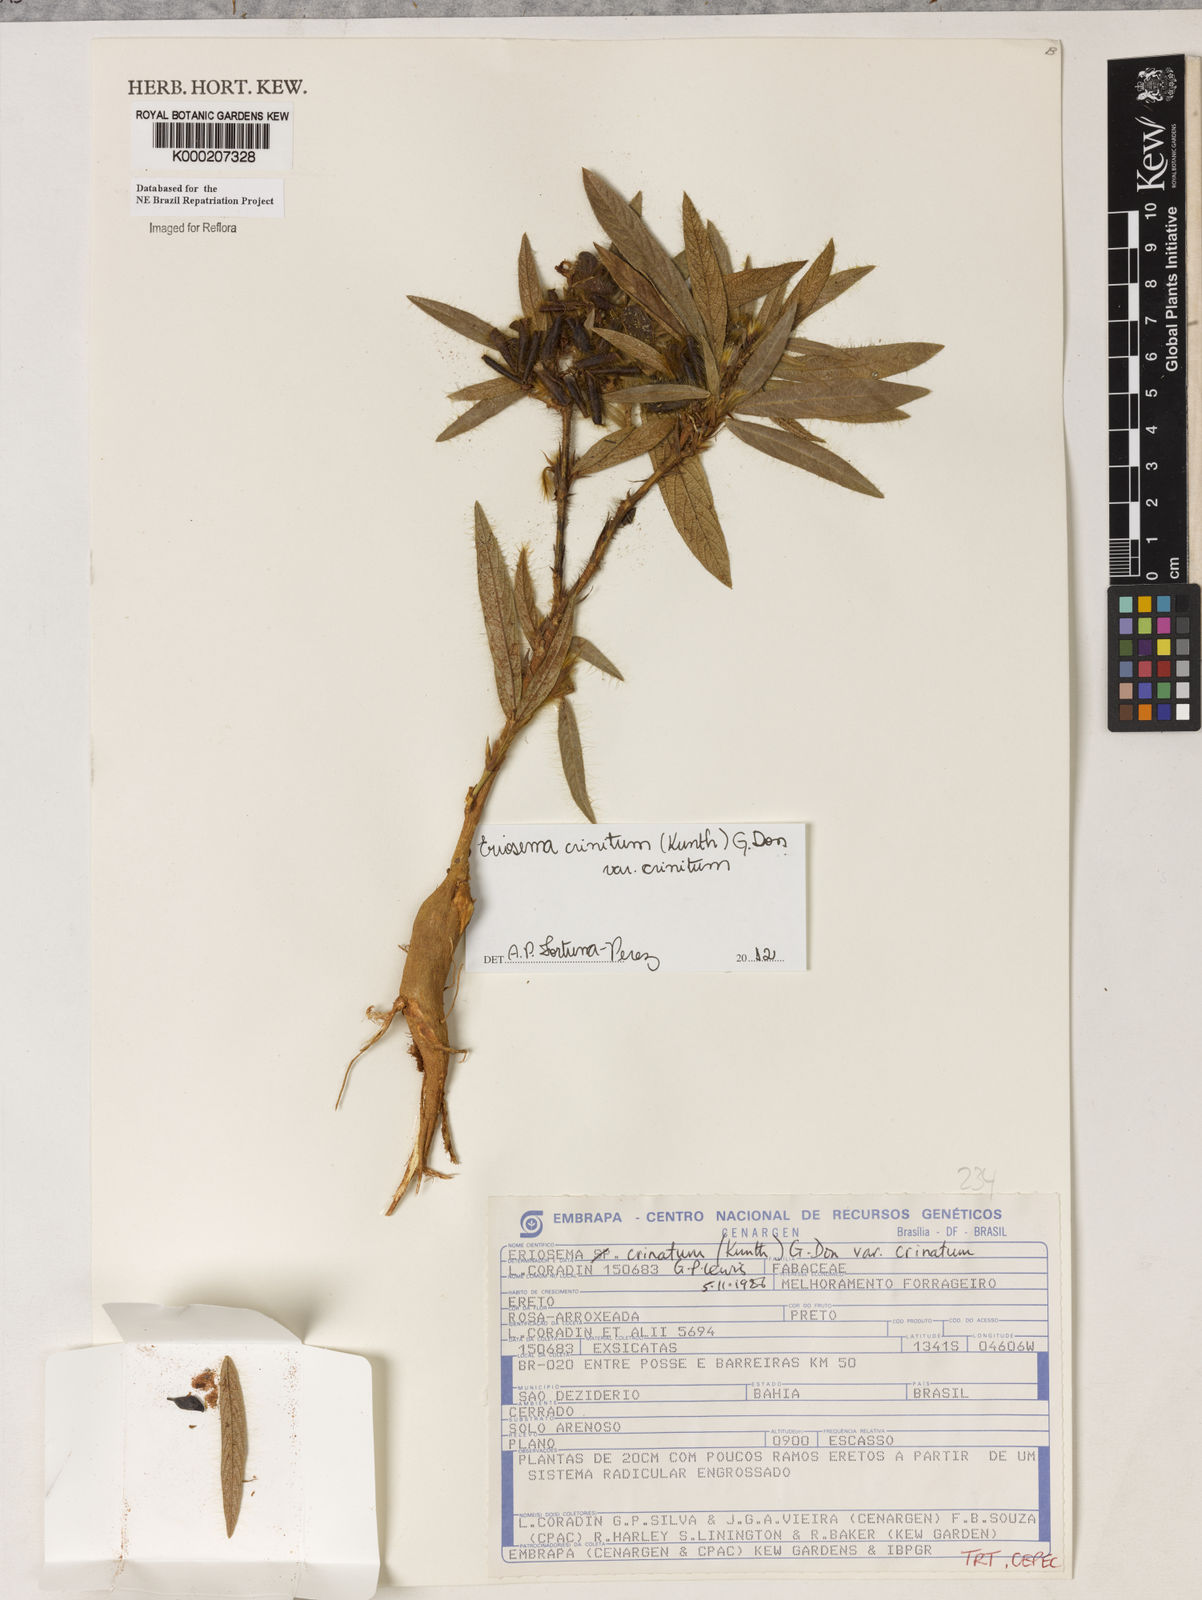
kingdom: Plantae
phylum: Tracheophyta
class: Magnoliopsida
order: Fabales
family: Fabaceae
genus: Eriosema
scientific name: Eriosema crinitum
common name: Sand pea
